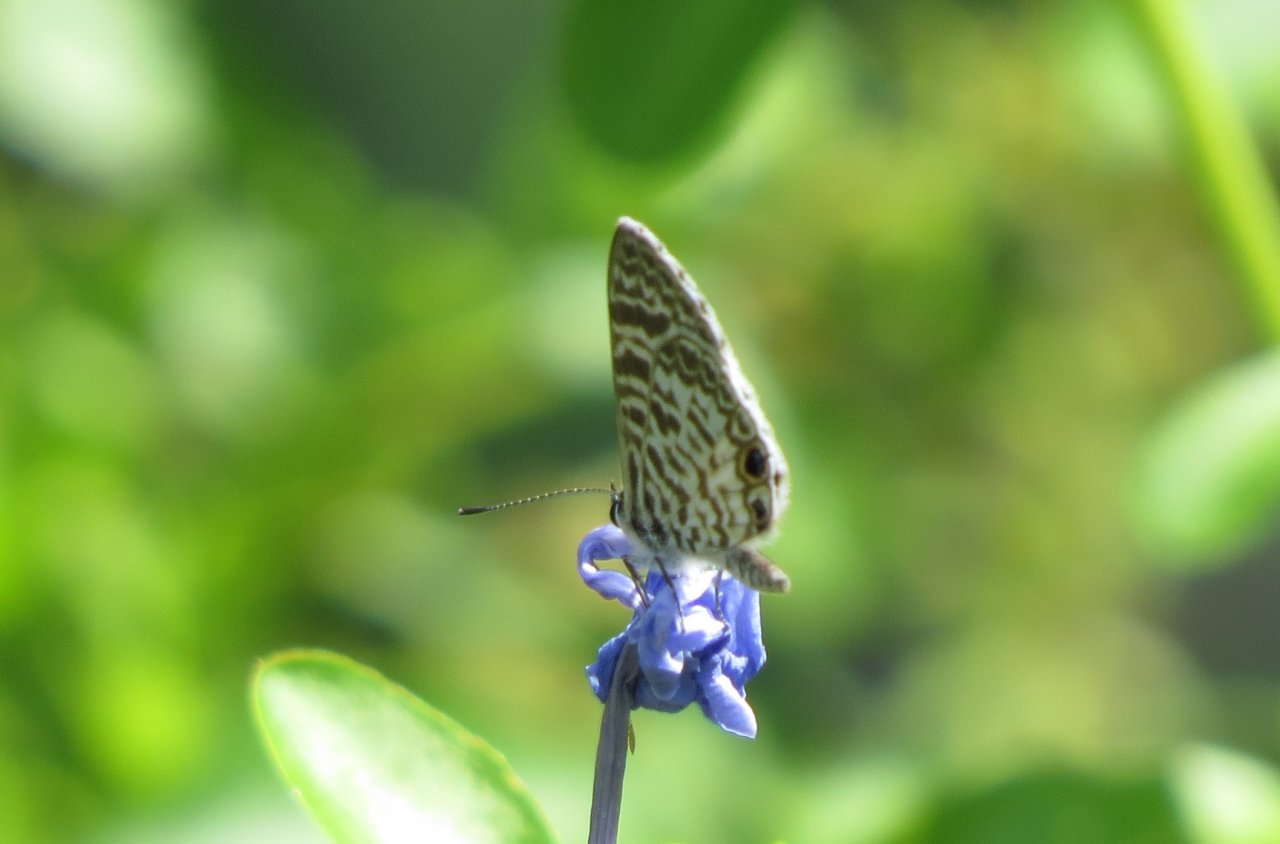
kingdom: Animalia
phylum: Arthropoda
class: Insecta
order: Lepidoptera
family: Lycaenidae
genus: Leptotes
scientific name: Leptotes cassius
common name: Cassius Blue
